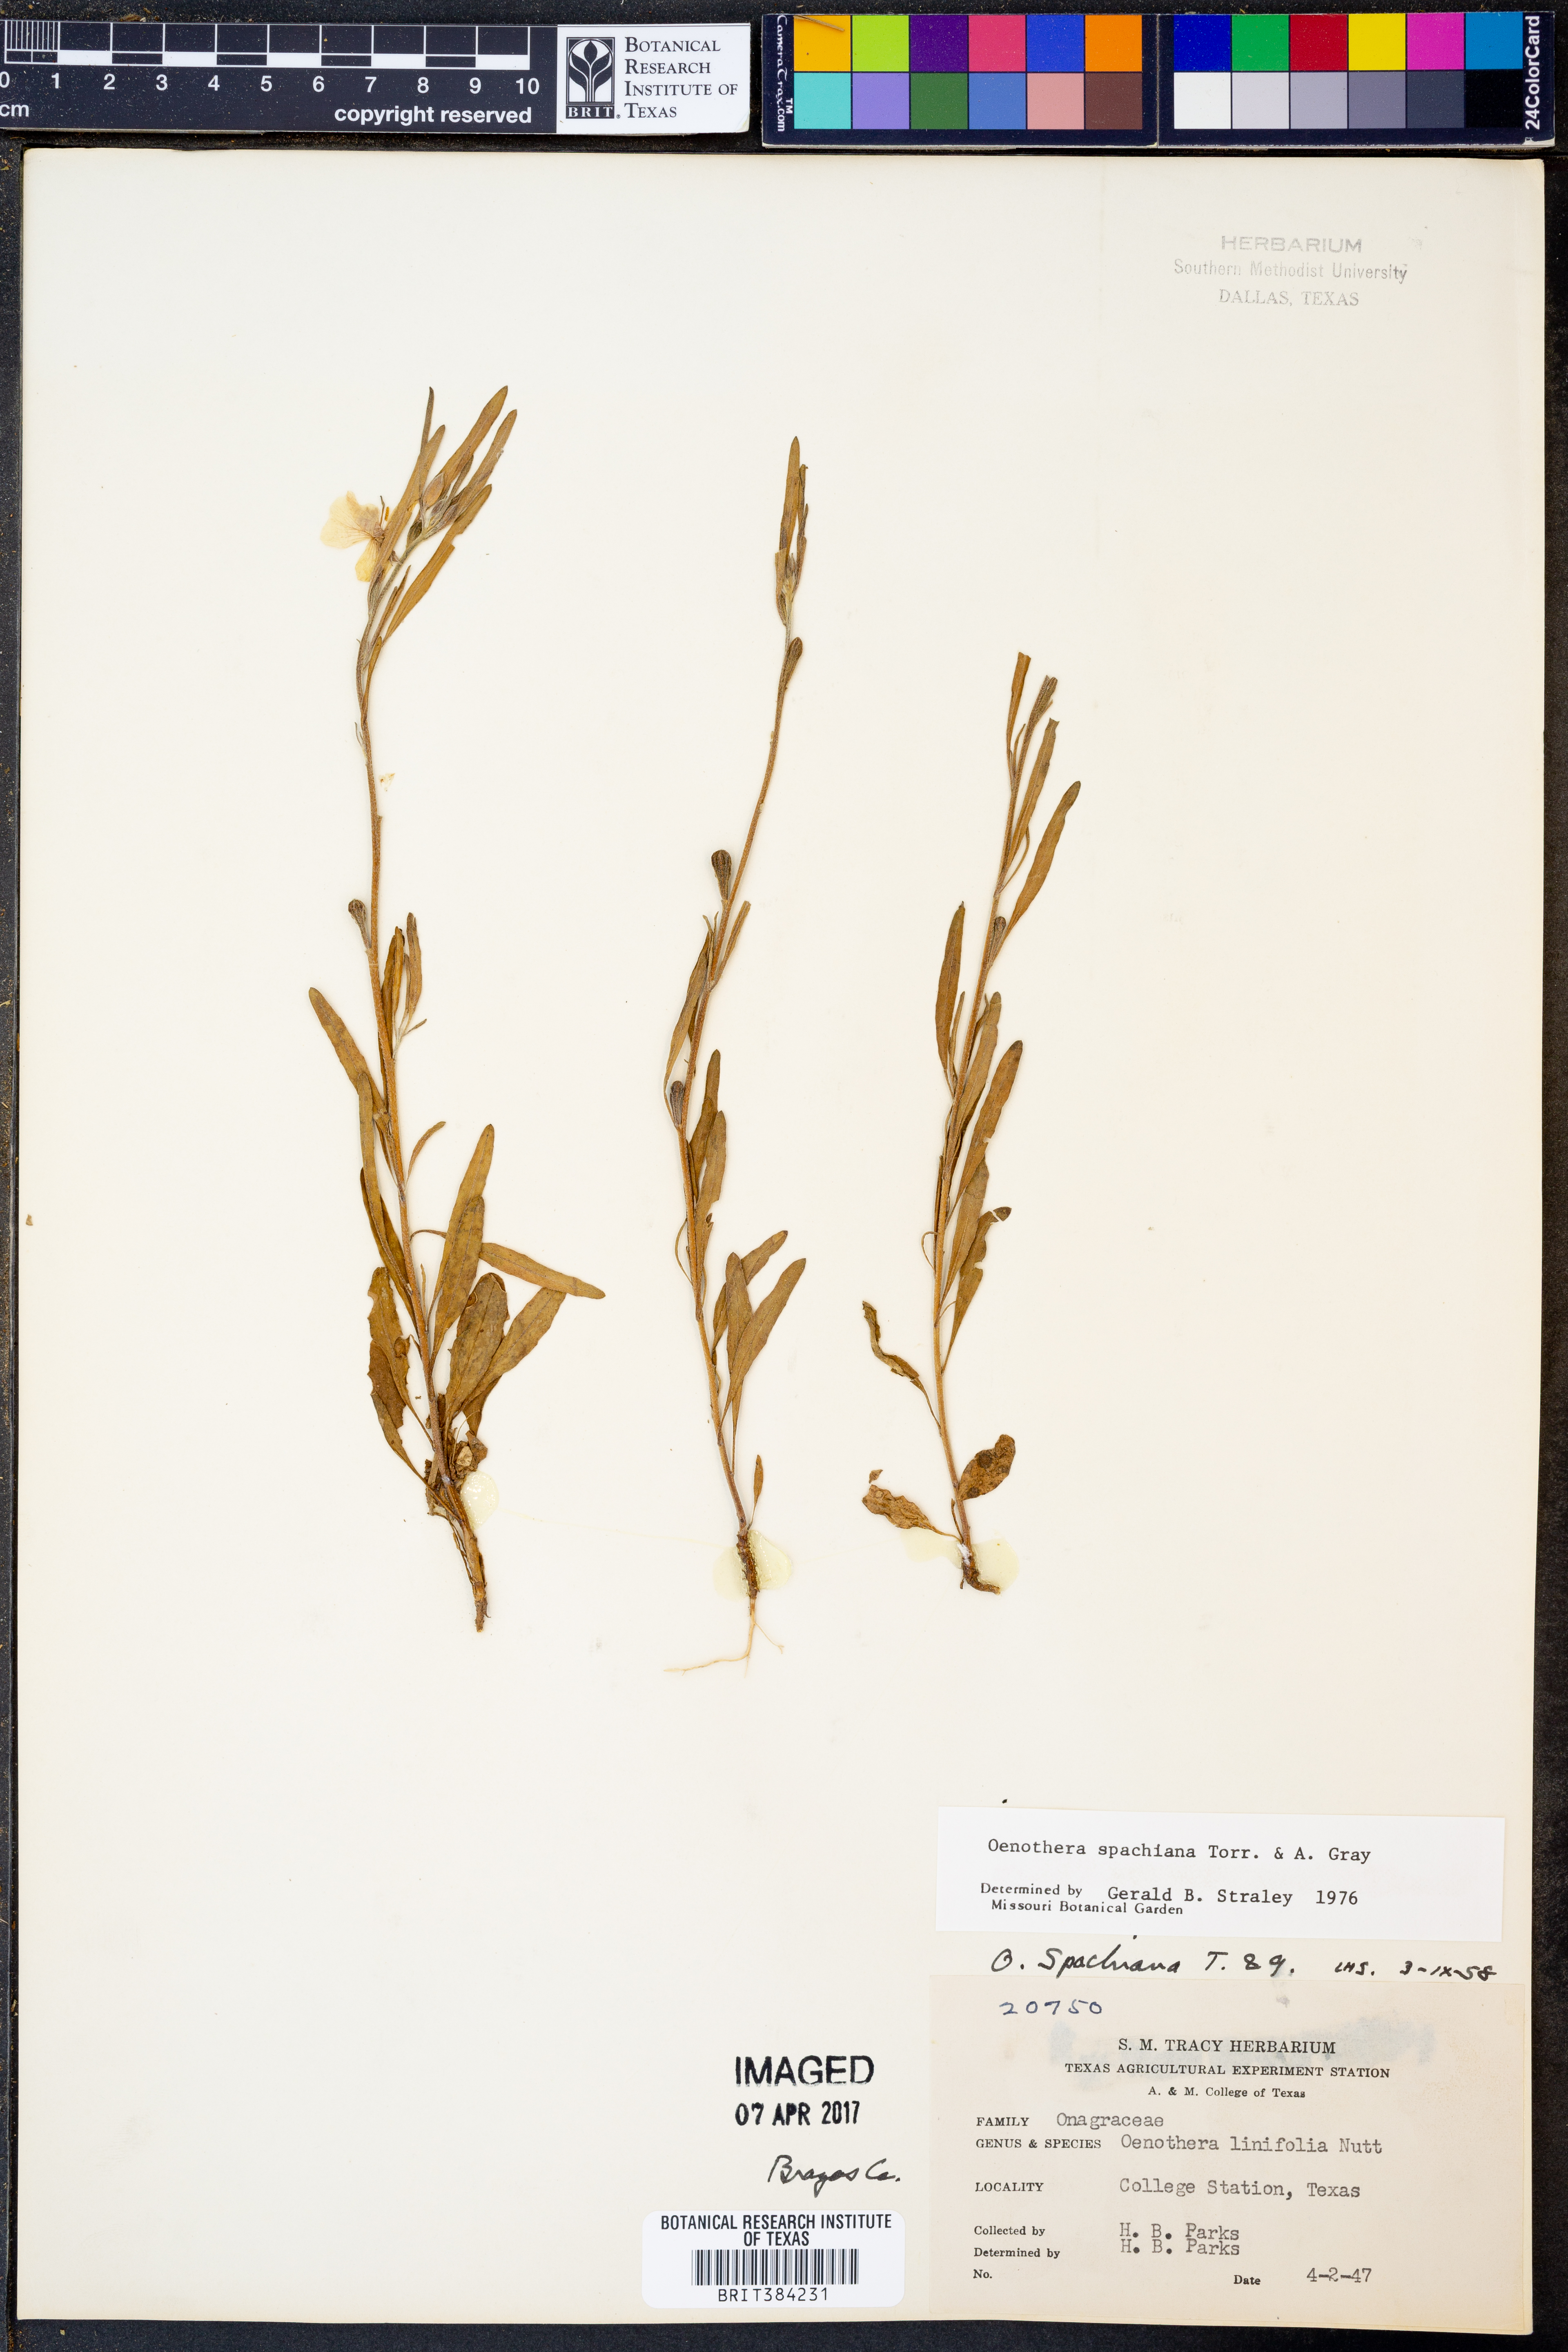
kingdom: Plantae
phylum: Tracheophyta
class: Magnoliopsida
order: Myrtales
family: Onagraceae
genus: Oenothera
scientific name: Oenothera spachiana
